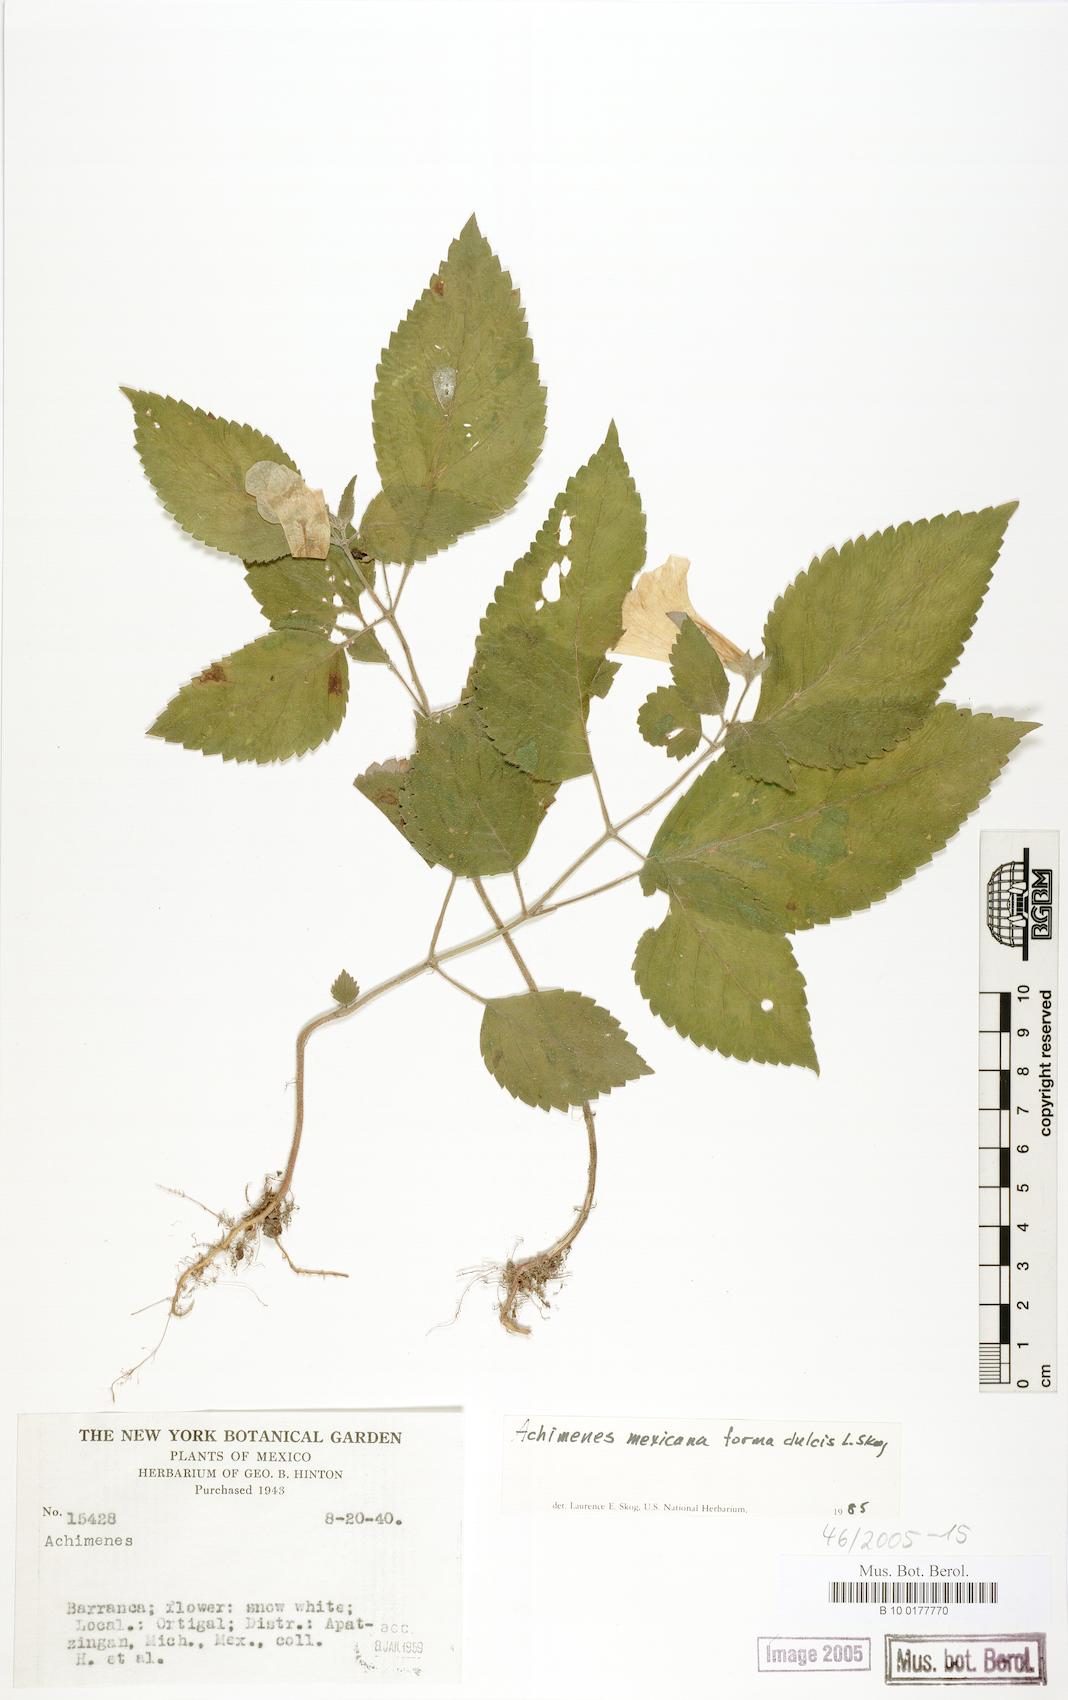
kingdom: Plantae
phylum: Tracheophyta
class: Magnoliopsida
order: Lamiales
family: Gesneriaceae
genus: Achimenes
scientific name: Achimenes mexicana
